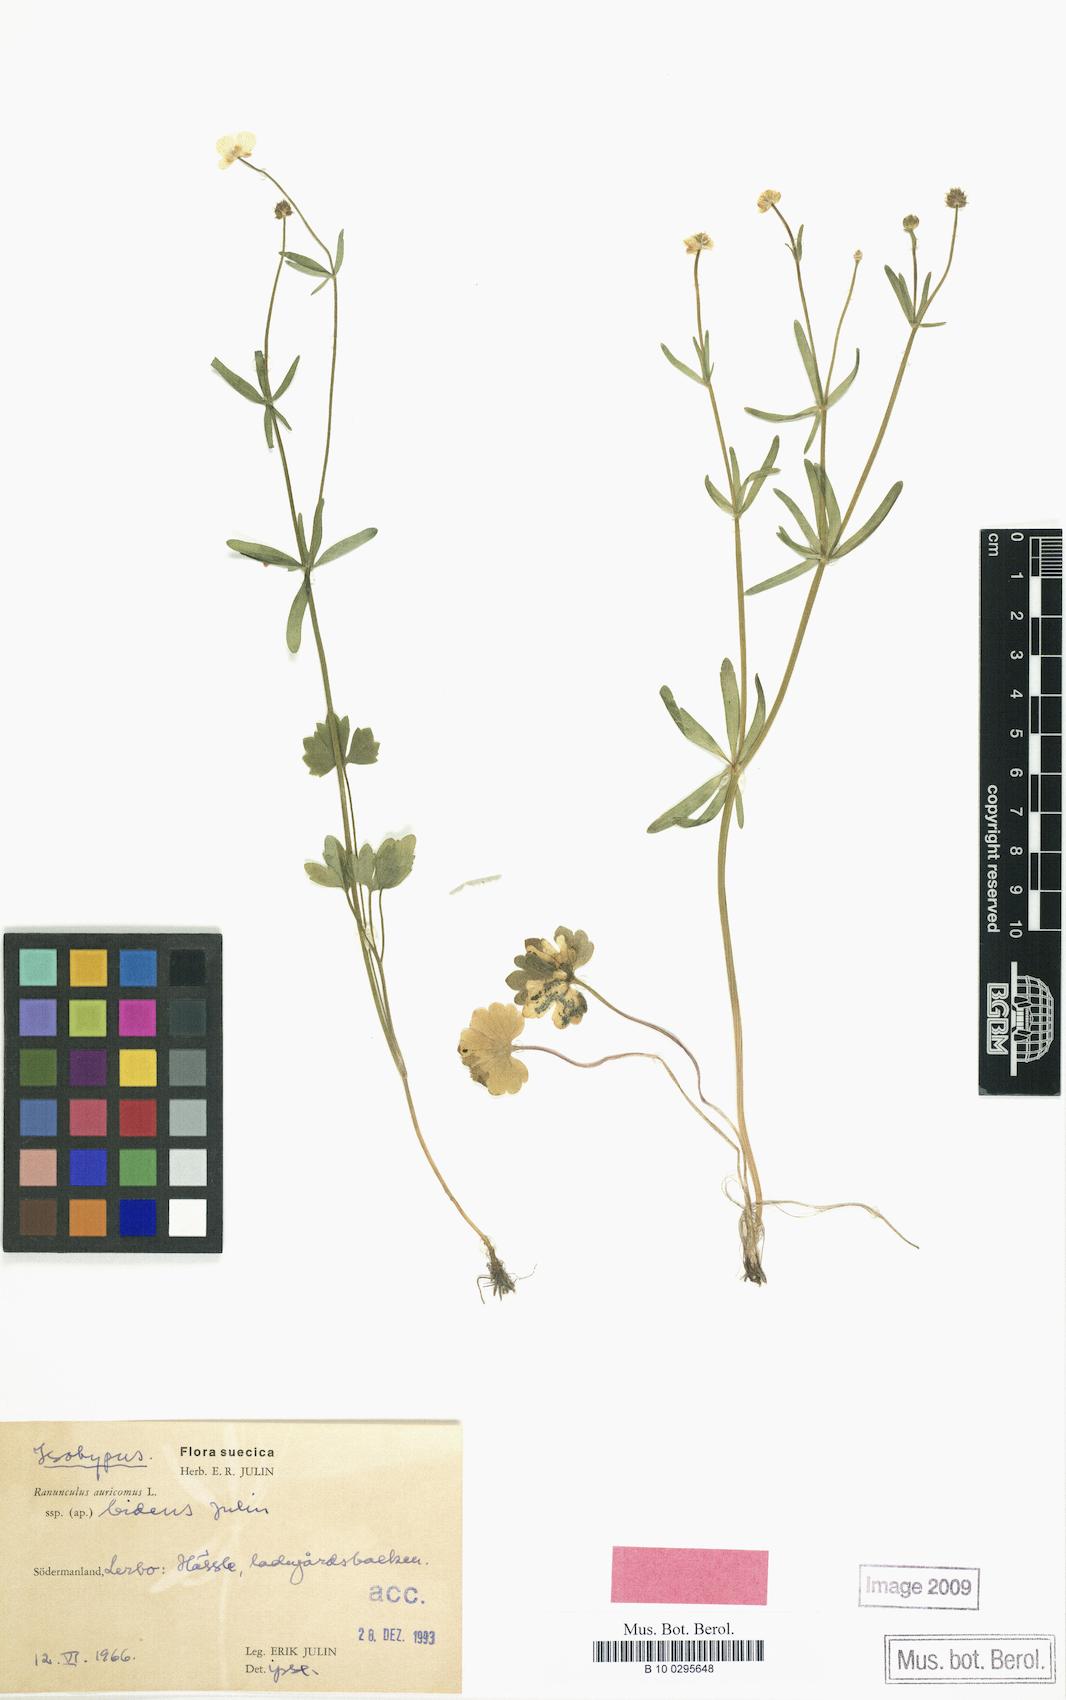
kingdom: Plantae
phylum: Tracheophyta
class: Magnoliopsida
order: Ranunculales
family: Ranunculaceae
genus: Ranunculus
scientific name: Ranunculus diodon
